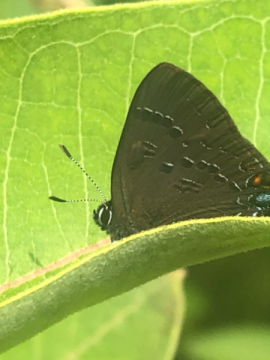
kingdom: Animalia
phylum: Arthropoda
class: Insecta
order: Lepidoptera
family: Lycaenidae
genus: Satyrium
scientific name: Satyrium calanus
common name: Banded Hairstreak
